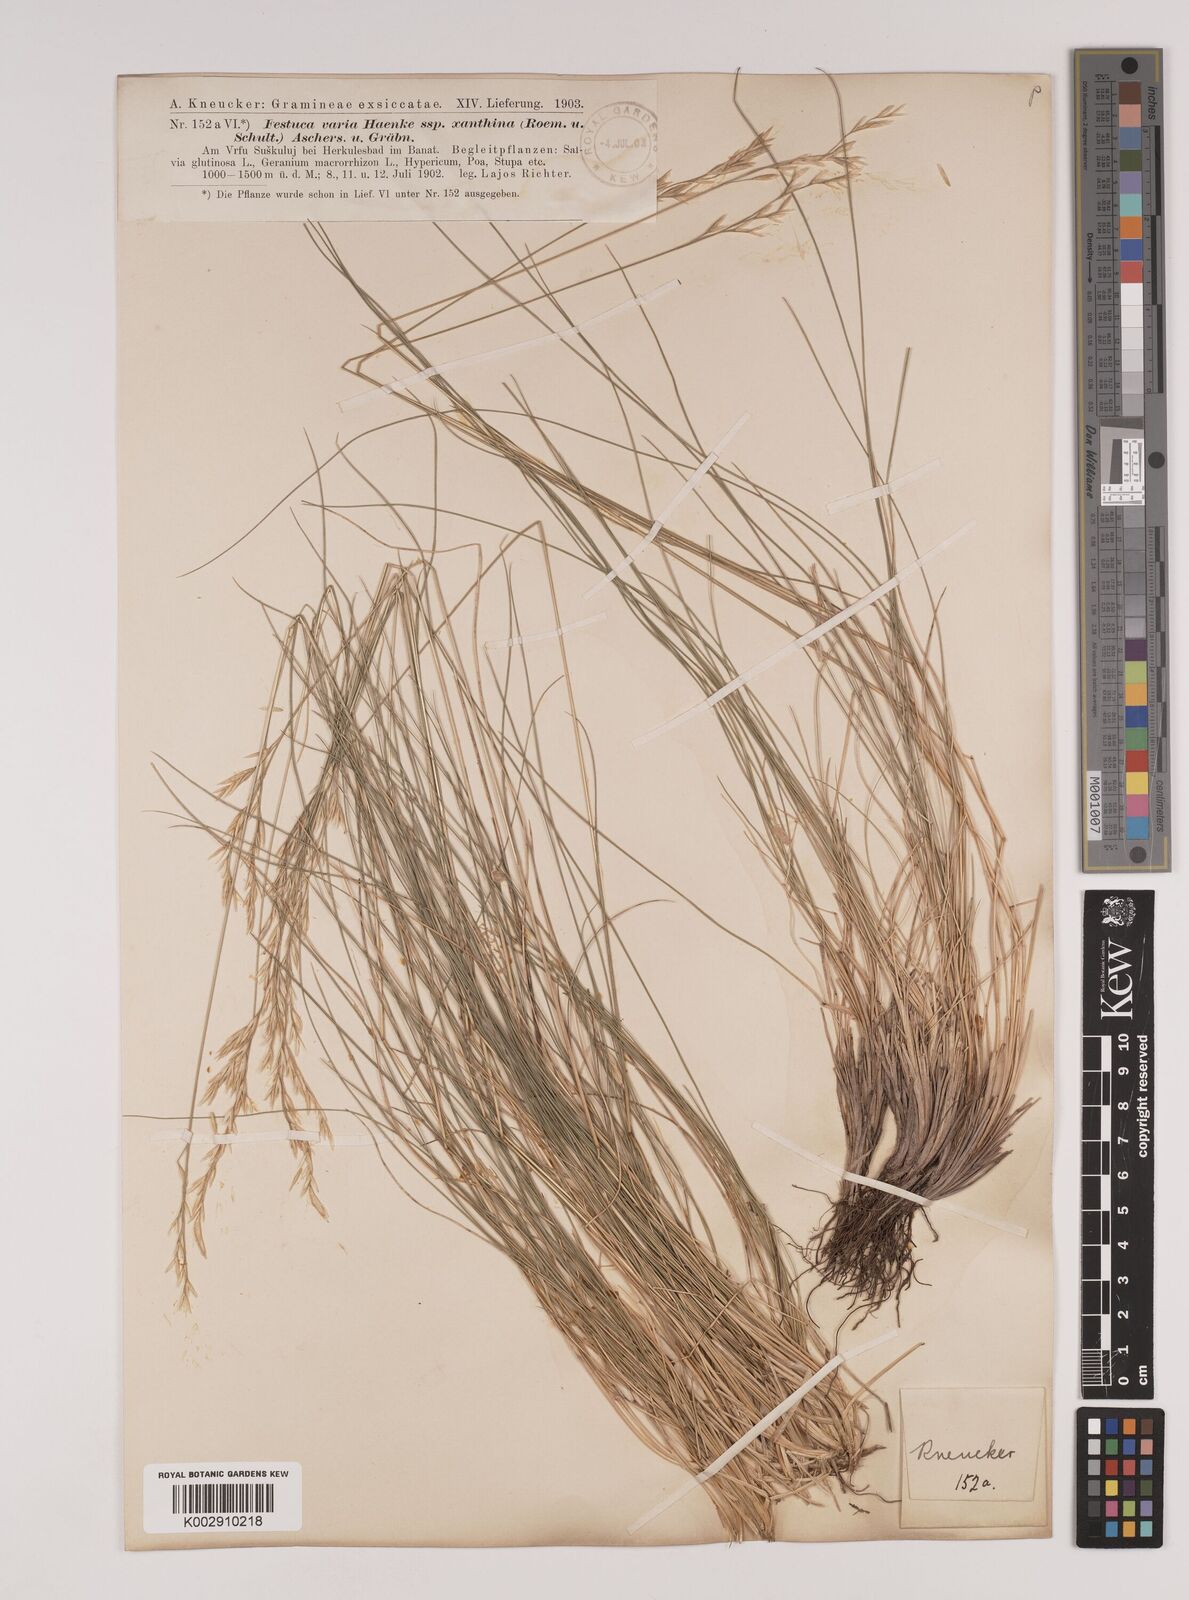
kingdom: Plantae
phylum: Tracheophyta
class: Liliopsida
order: Poales
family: Poaceae
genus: Festuca
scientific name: Festuca xanthina
